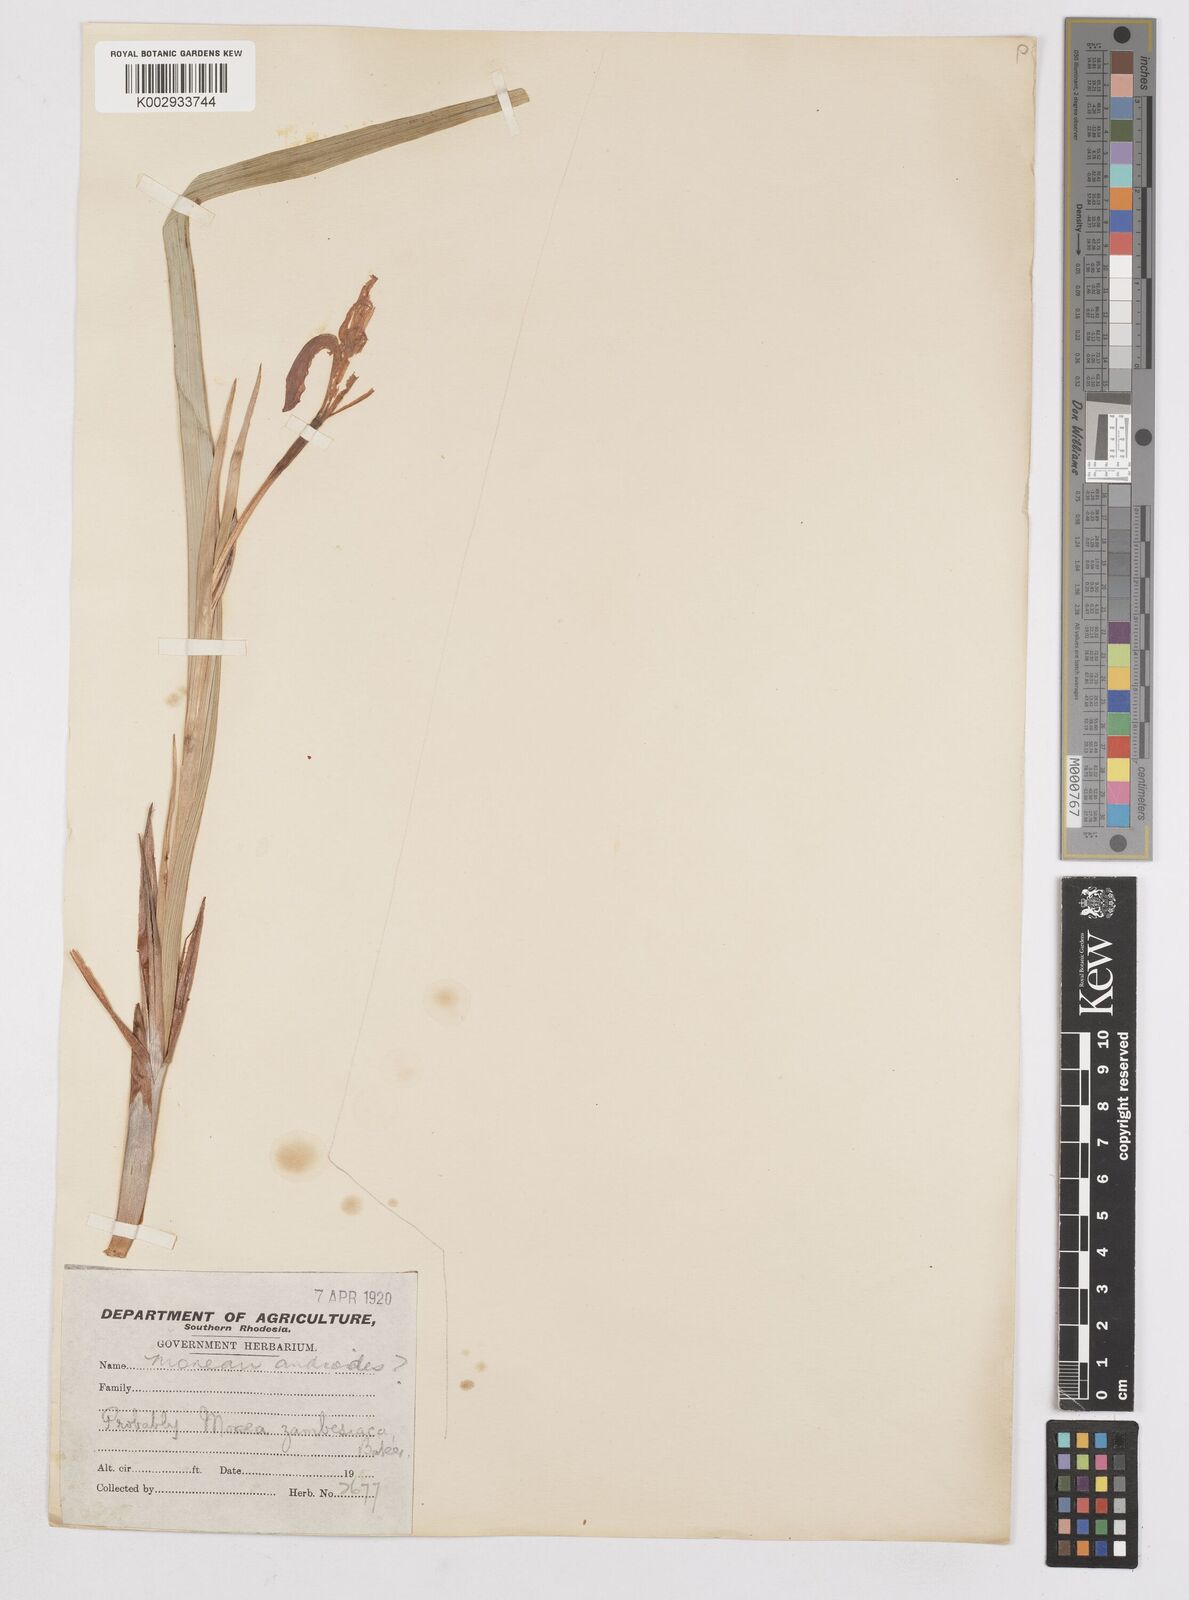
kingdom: Plantae
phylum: Tracheophyta
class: Liliopsida
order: Asparagales
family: Iridaceae
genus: Moraea
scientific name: Moraea schimperi
